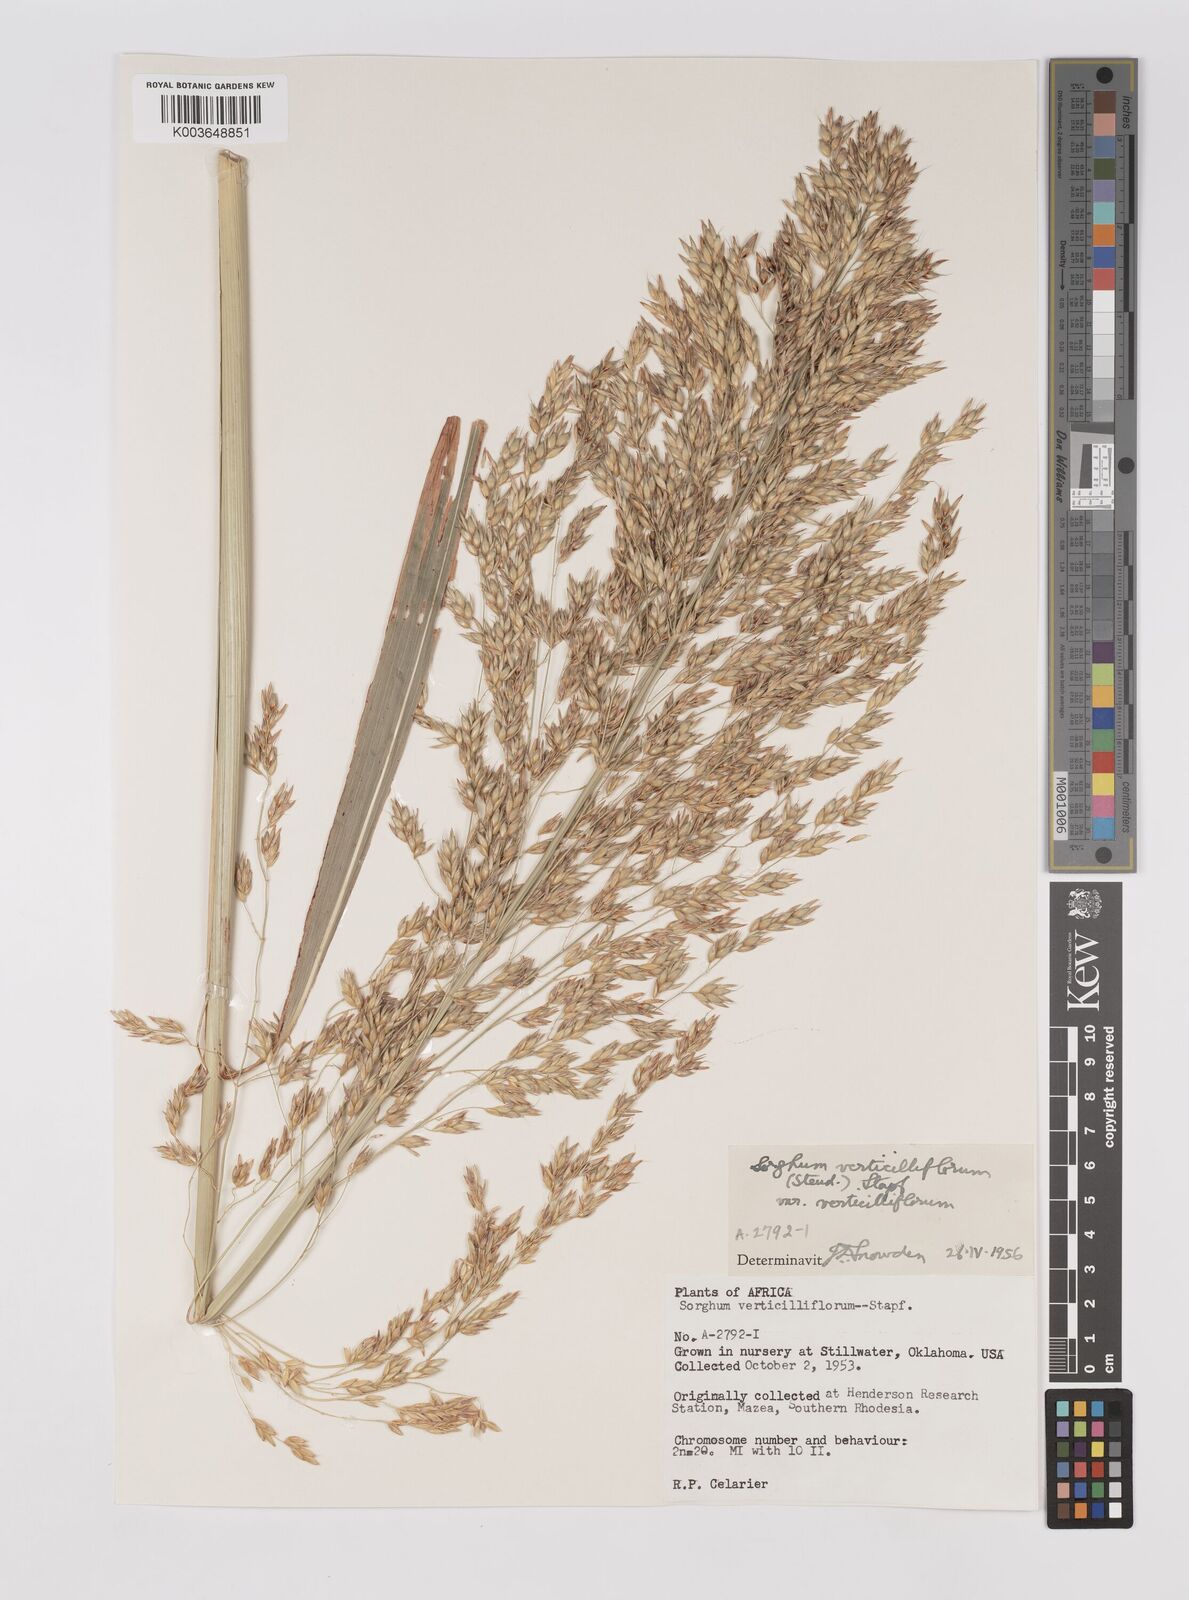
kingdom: Plantae
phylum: Tracheophyta
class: Liliopsida
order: Poales
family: Poaceae
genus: Sorghum
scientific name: Sorghum arundinaceum
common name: Sorghum
